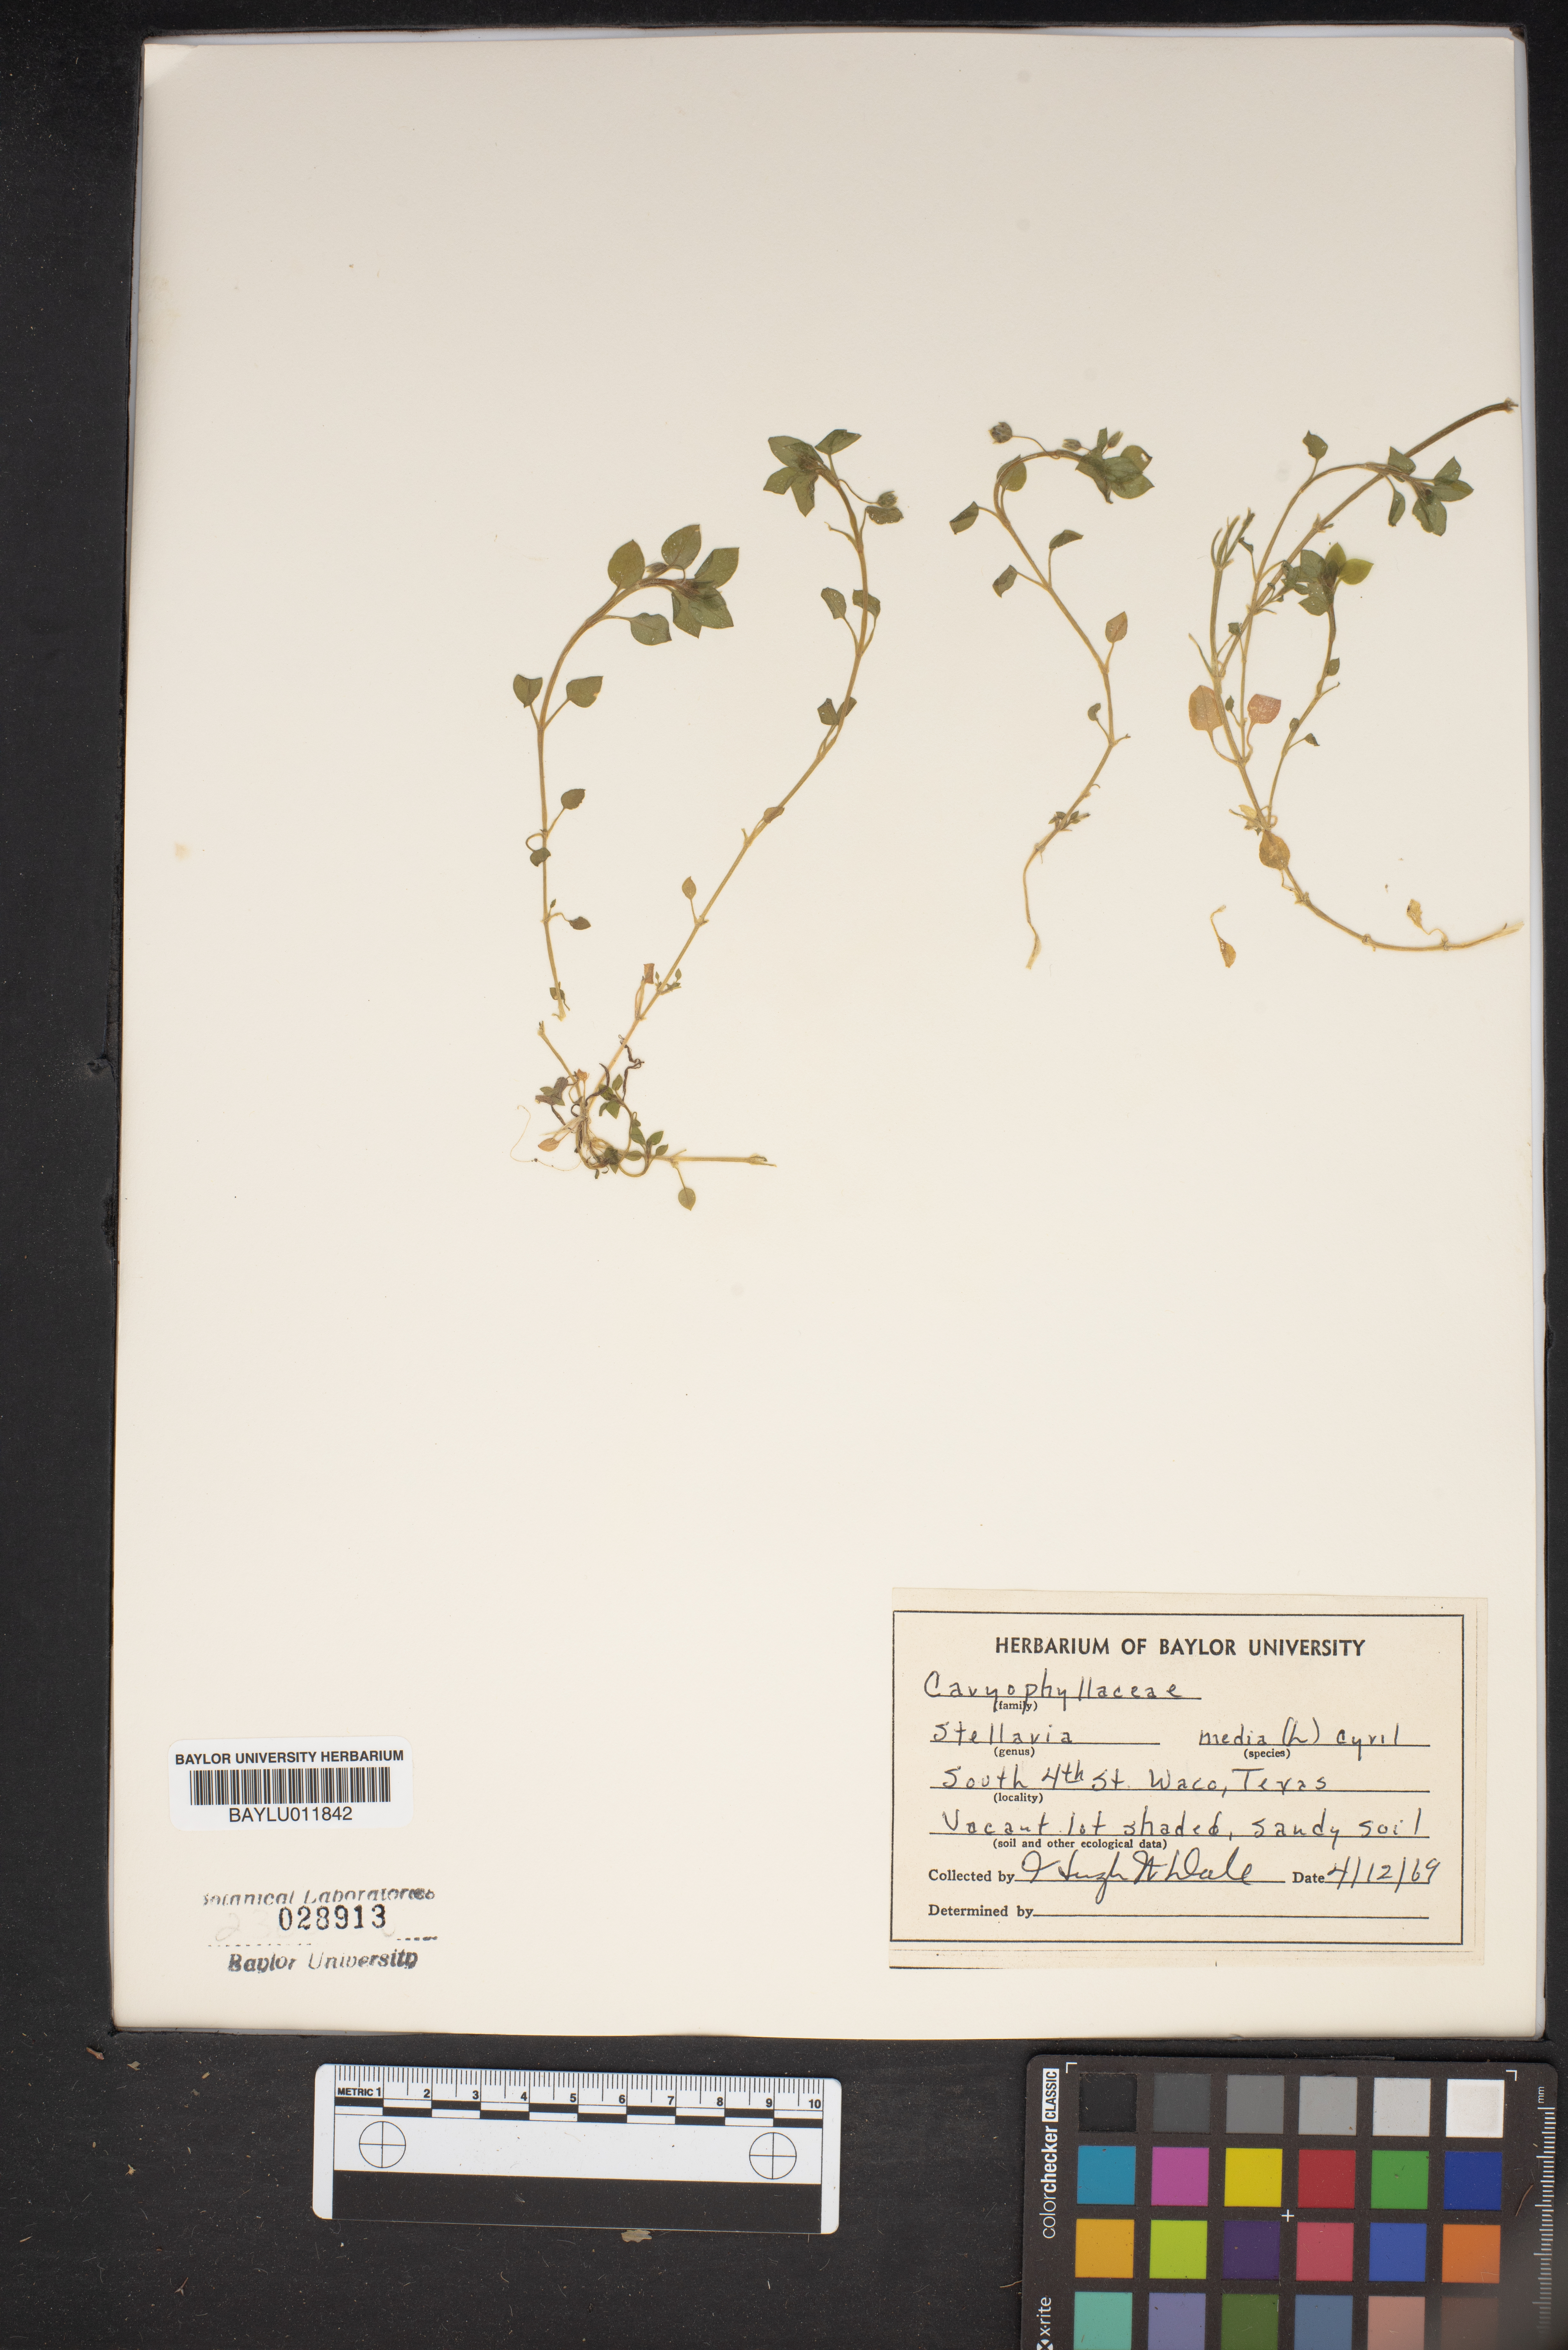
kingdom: Plantae
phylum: Tracheophyta
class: Magnoliopsida
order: Caryophyllales
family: Caryophyllaceae
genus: Stellaria
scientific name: Stellaria media
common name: Common chickweed
